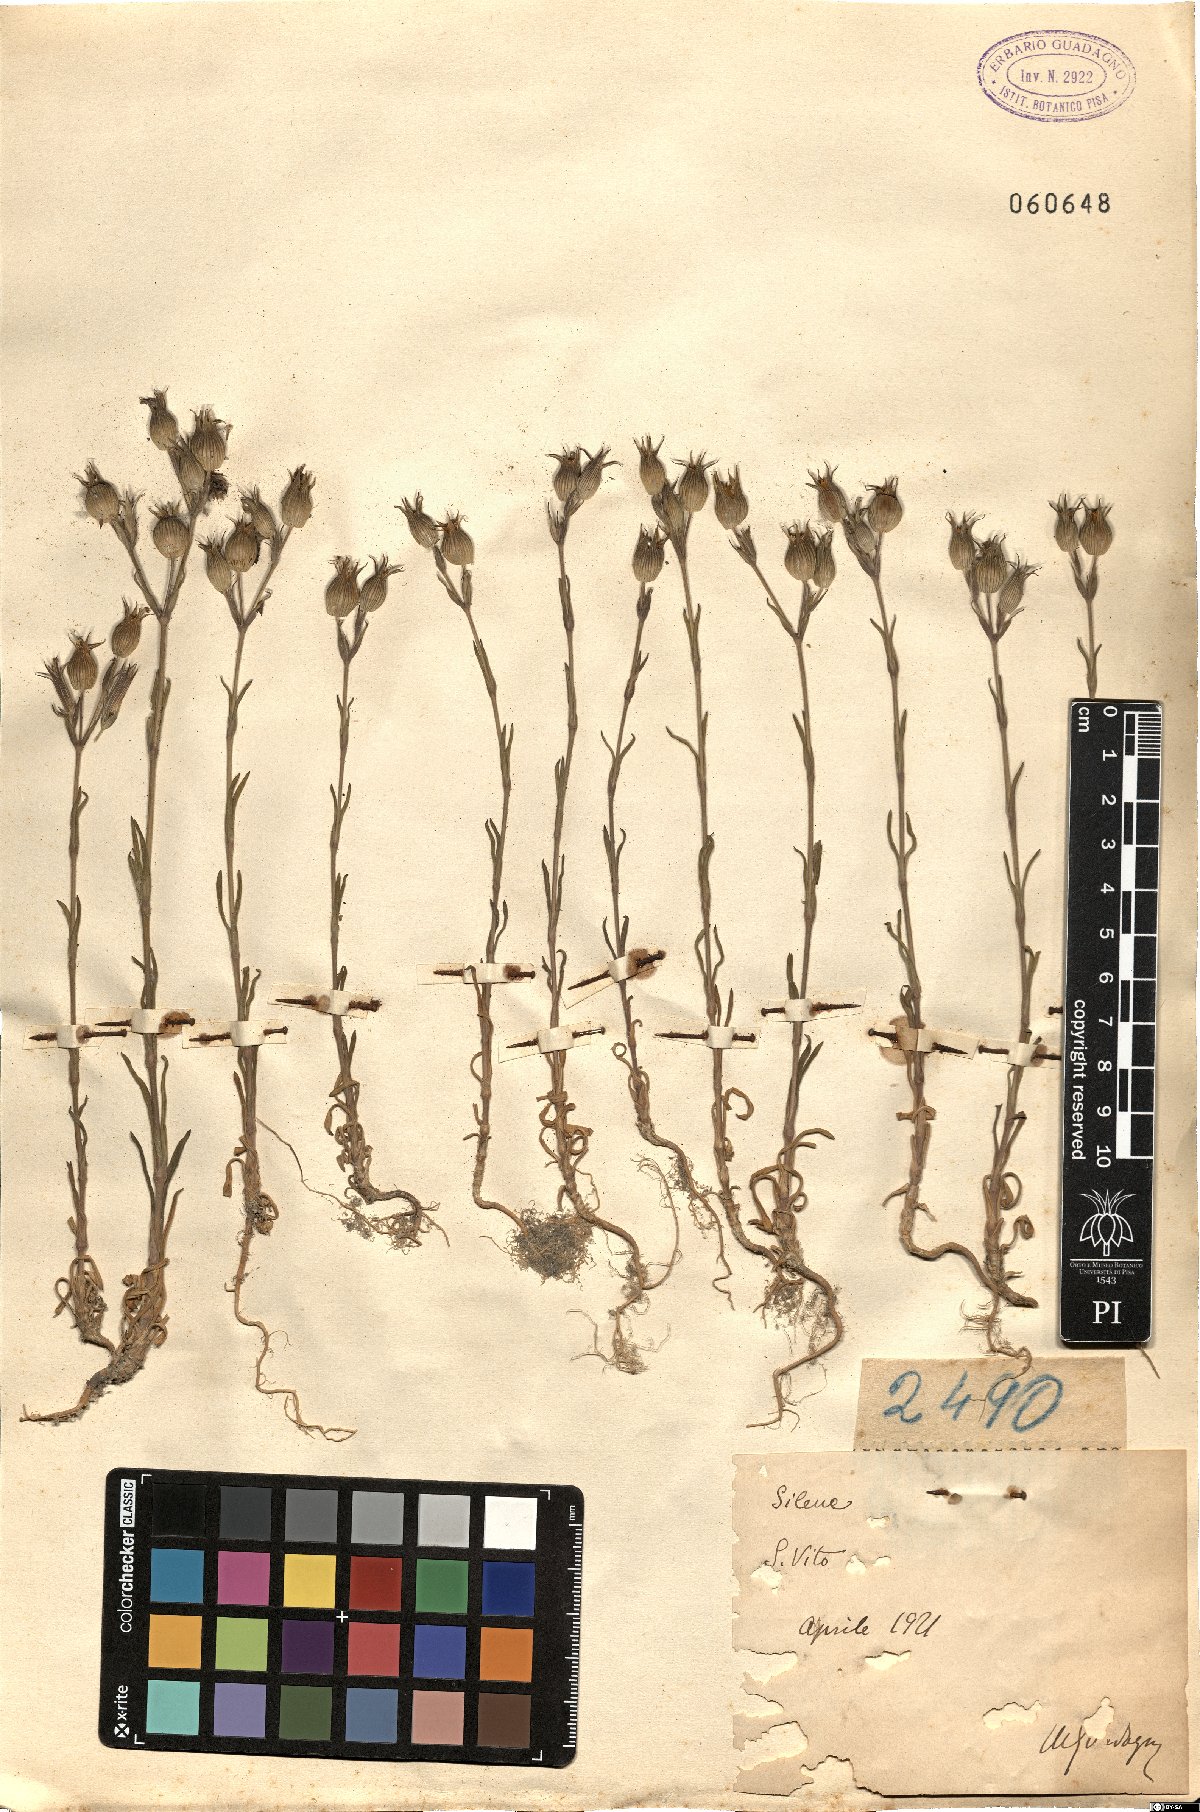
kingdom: Plantae
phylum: Tracheophyta
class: Magnoliopsida
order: Caryophyllales
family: Caryophyllaceae
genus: Silene
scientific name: Silene
